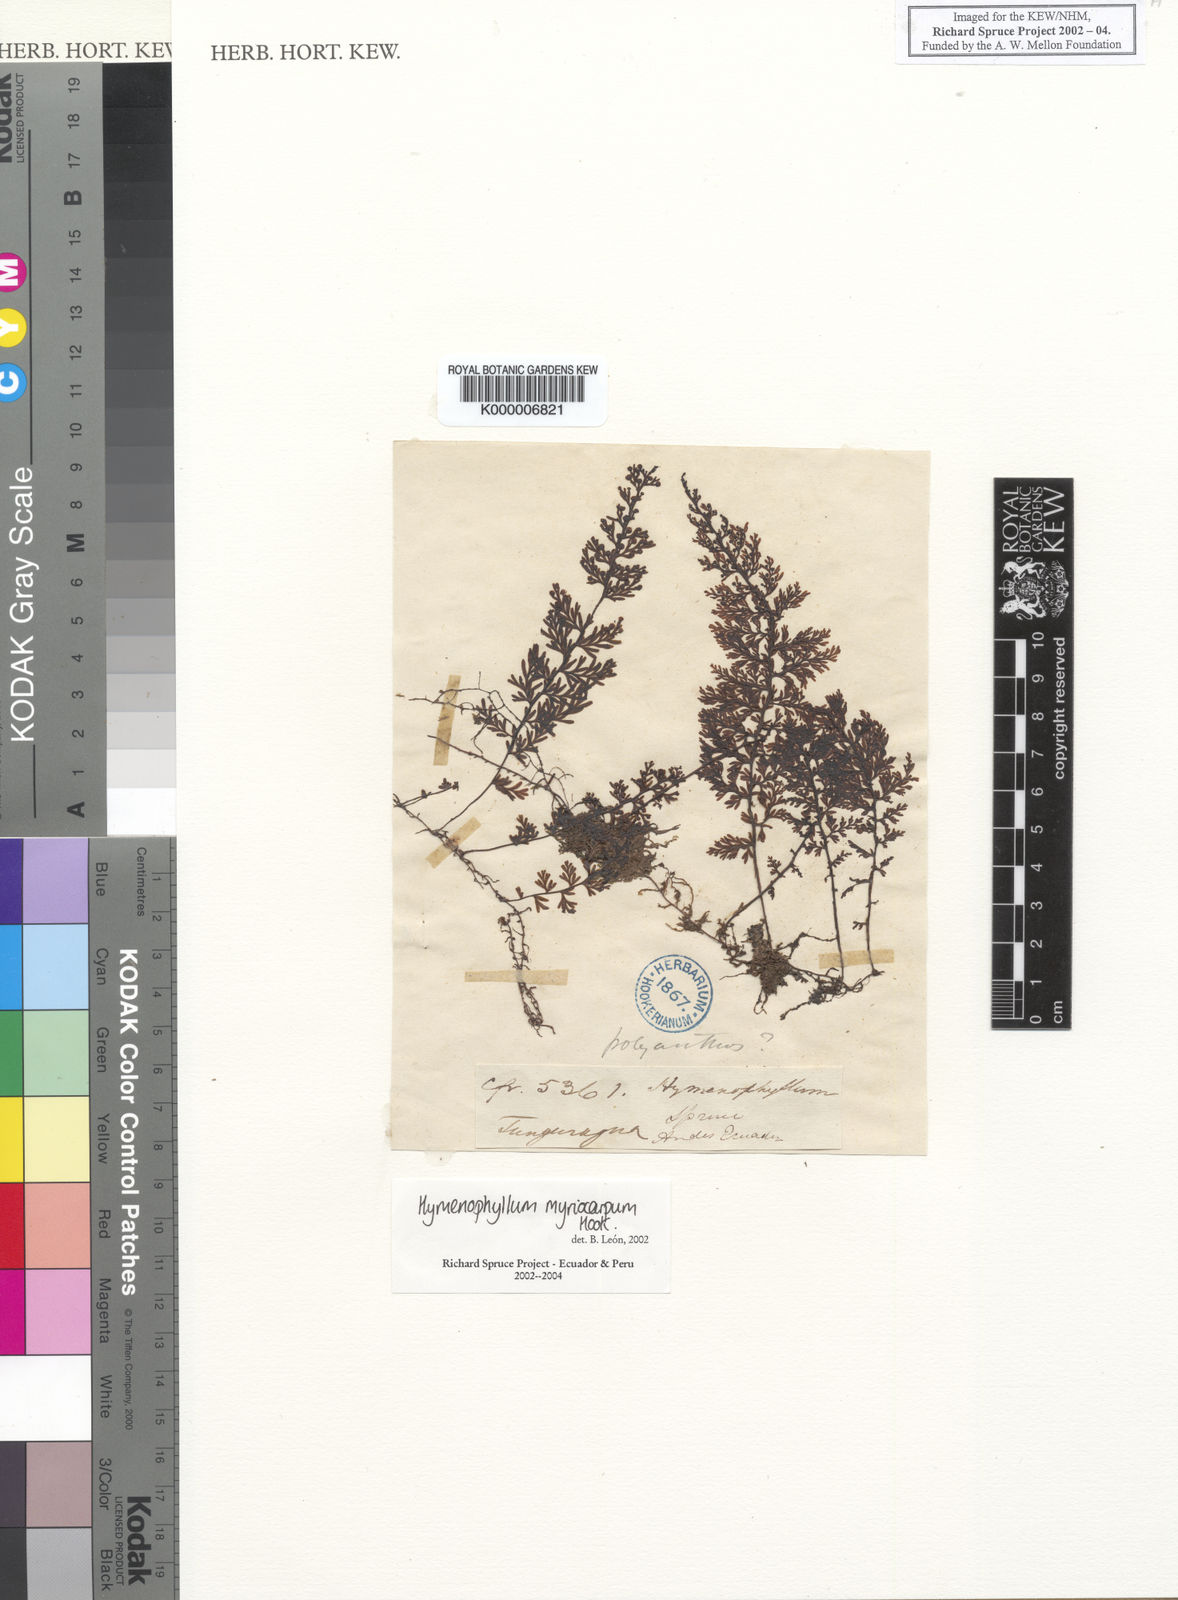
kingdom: Plantae
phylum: Tracheophyta
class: Polypodiopsida
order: Hymenophyllales
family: Hymenophyllaceae
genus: Hymenophyllum
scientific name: Hymenophyllum myriocarpum
